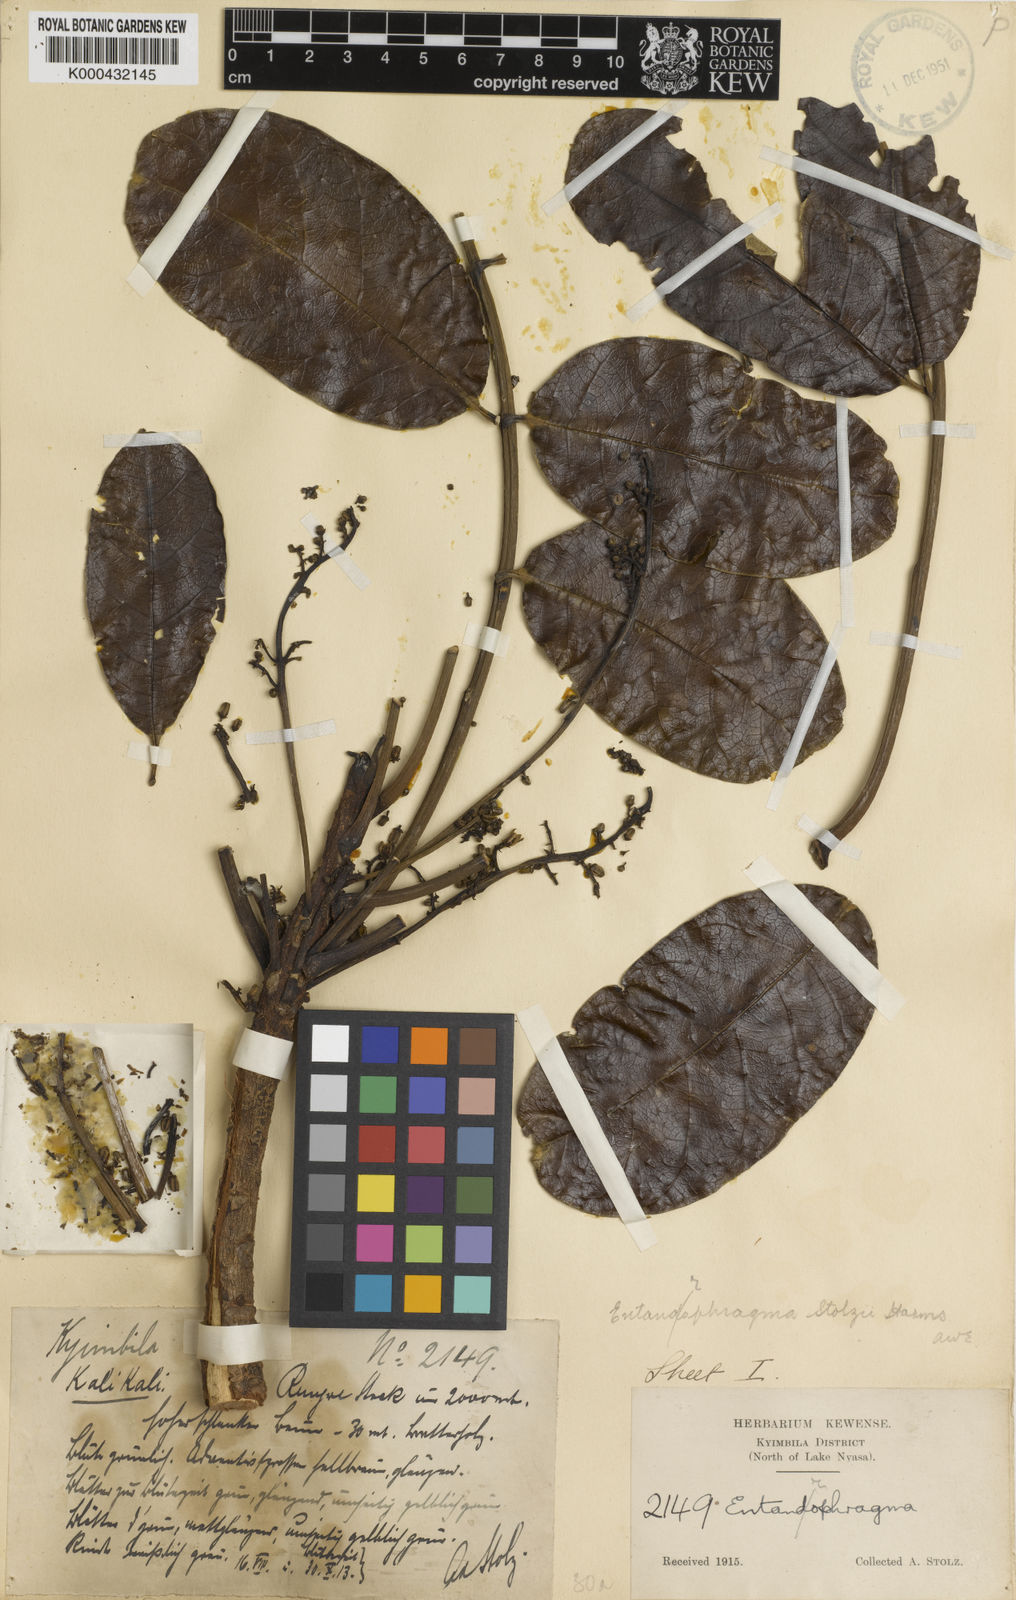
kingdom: Plantae
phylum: Tracheophyta
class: Magnoliopsida
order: Sapindales
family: Meliaceae
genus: Entandrophragma
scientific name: Entandrophragma excelsum
